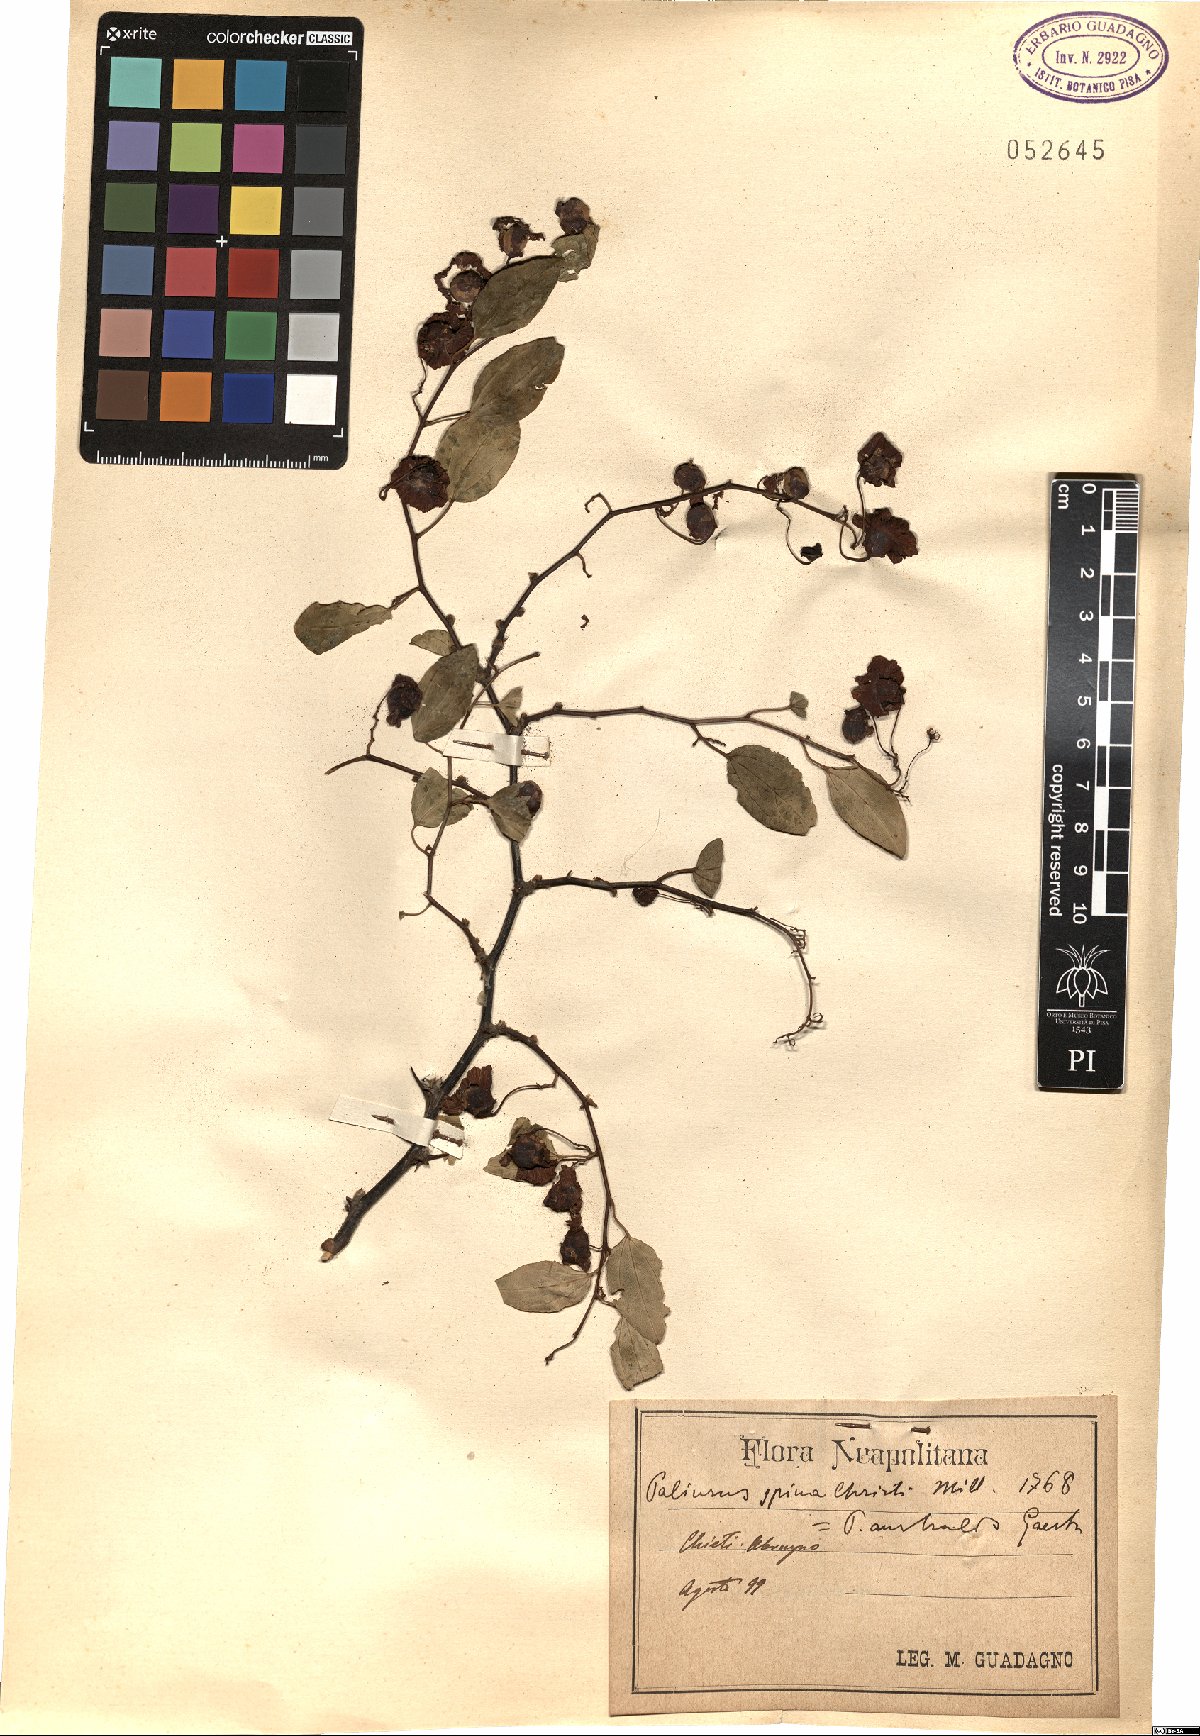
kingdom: Plantae
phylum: Tracheophyta
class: Magnoliopsida
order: Rosales
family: Rhamnaceae
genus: Paliurus
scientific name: Paliurus spina-christi
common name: Jeruselem thorn
